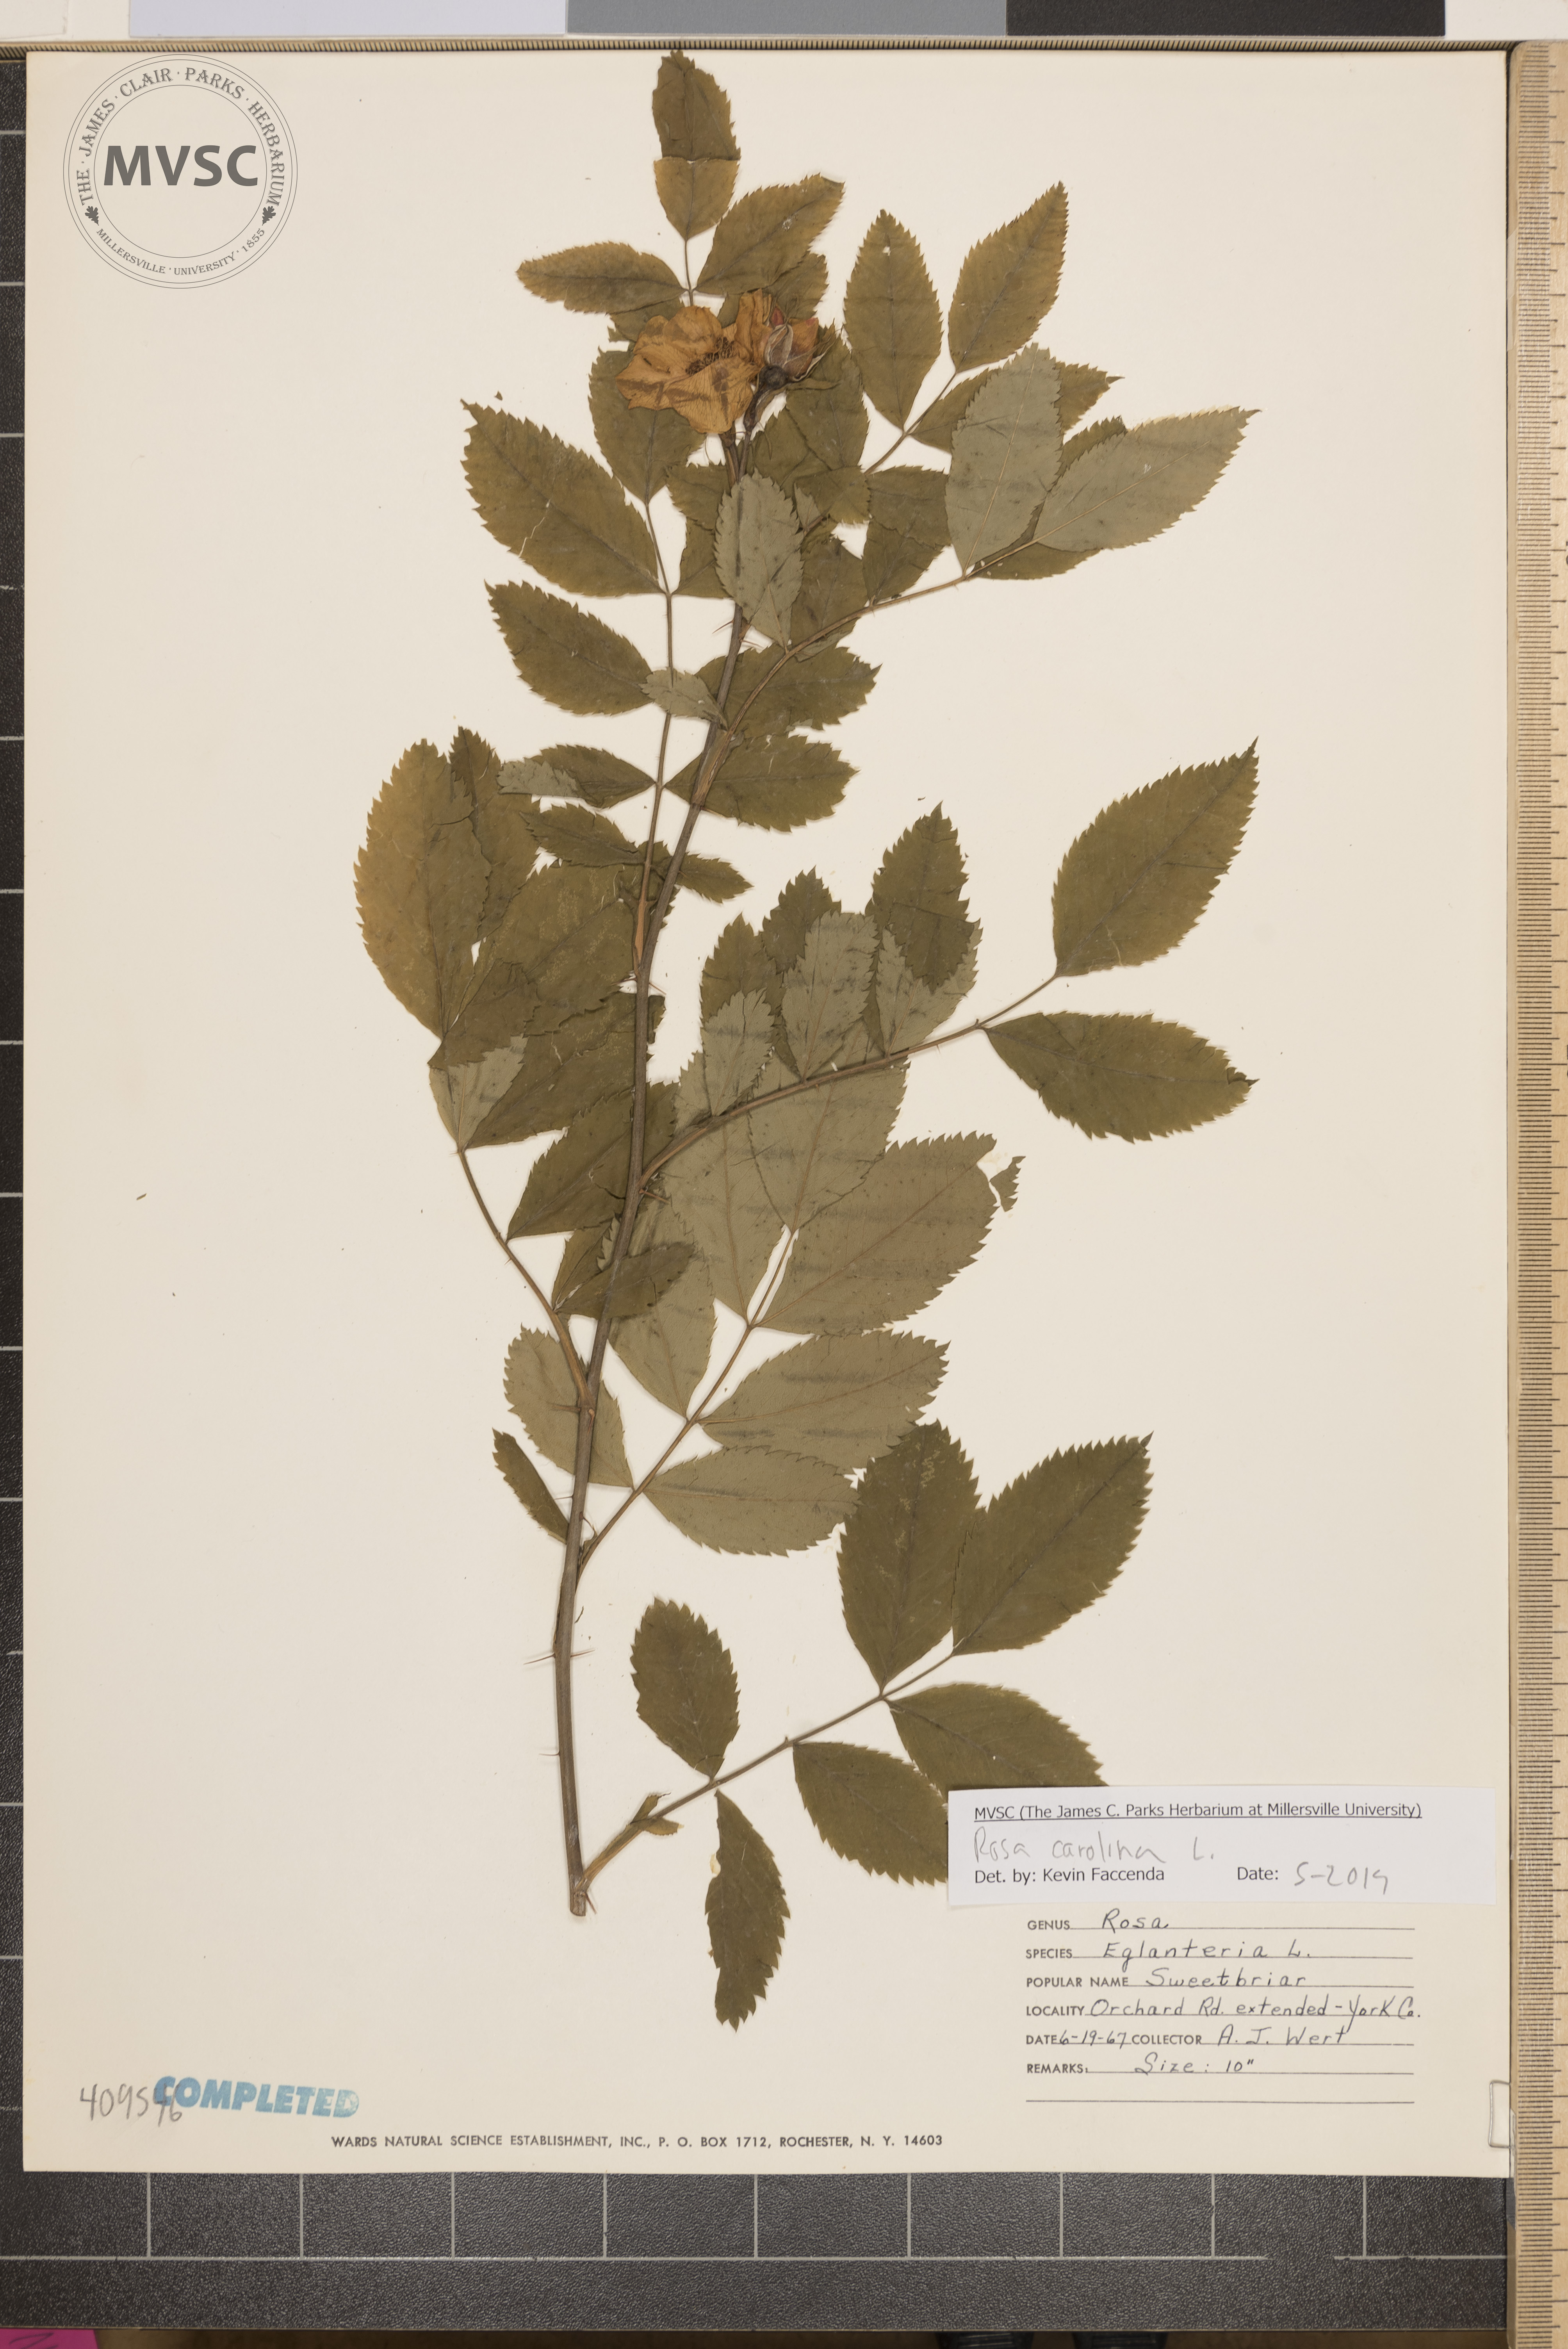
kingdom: Plantae
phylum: Tracheophyta
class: Magnoliopsida
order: Rosales
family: Rosaceae
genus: Rosa
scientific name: Rosa carolina
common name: Pasture rose
